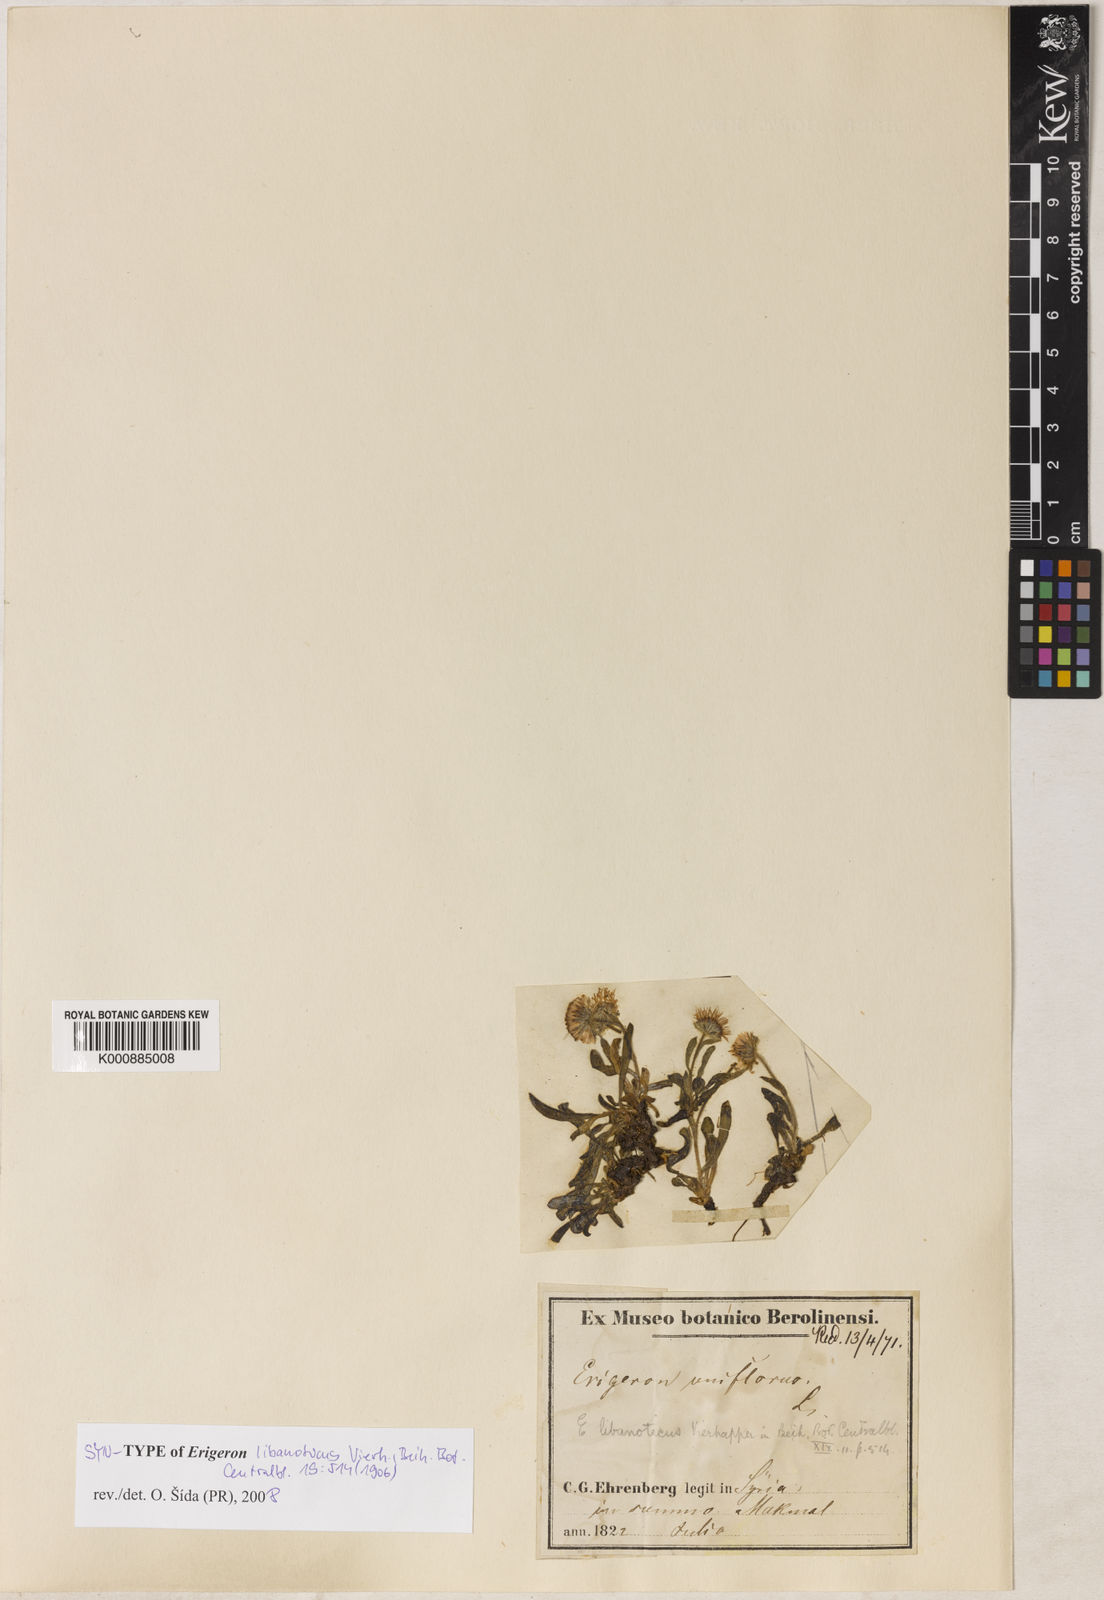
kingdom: Plantae
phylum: Tracheophyta
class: Magnoliopsida
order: Asterales
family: Asteraceae
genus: Erigeron
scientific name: Erigeron uniflorus
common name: Northern daisy
